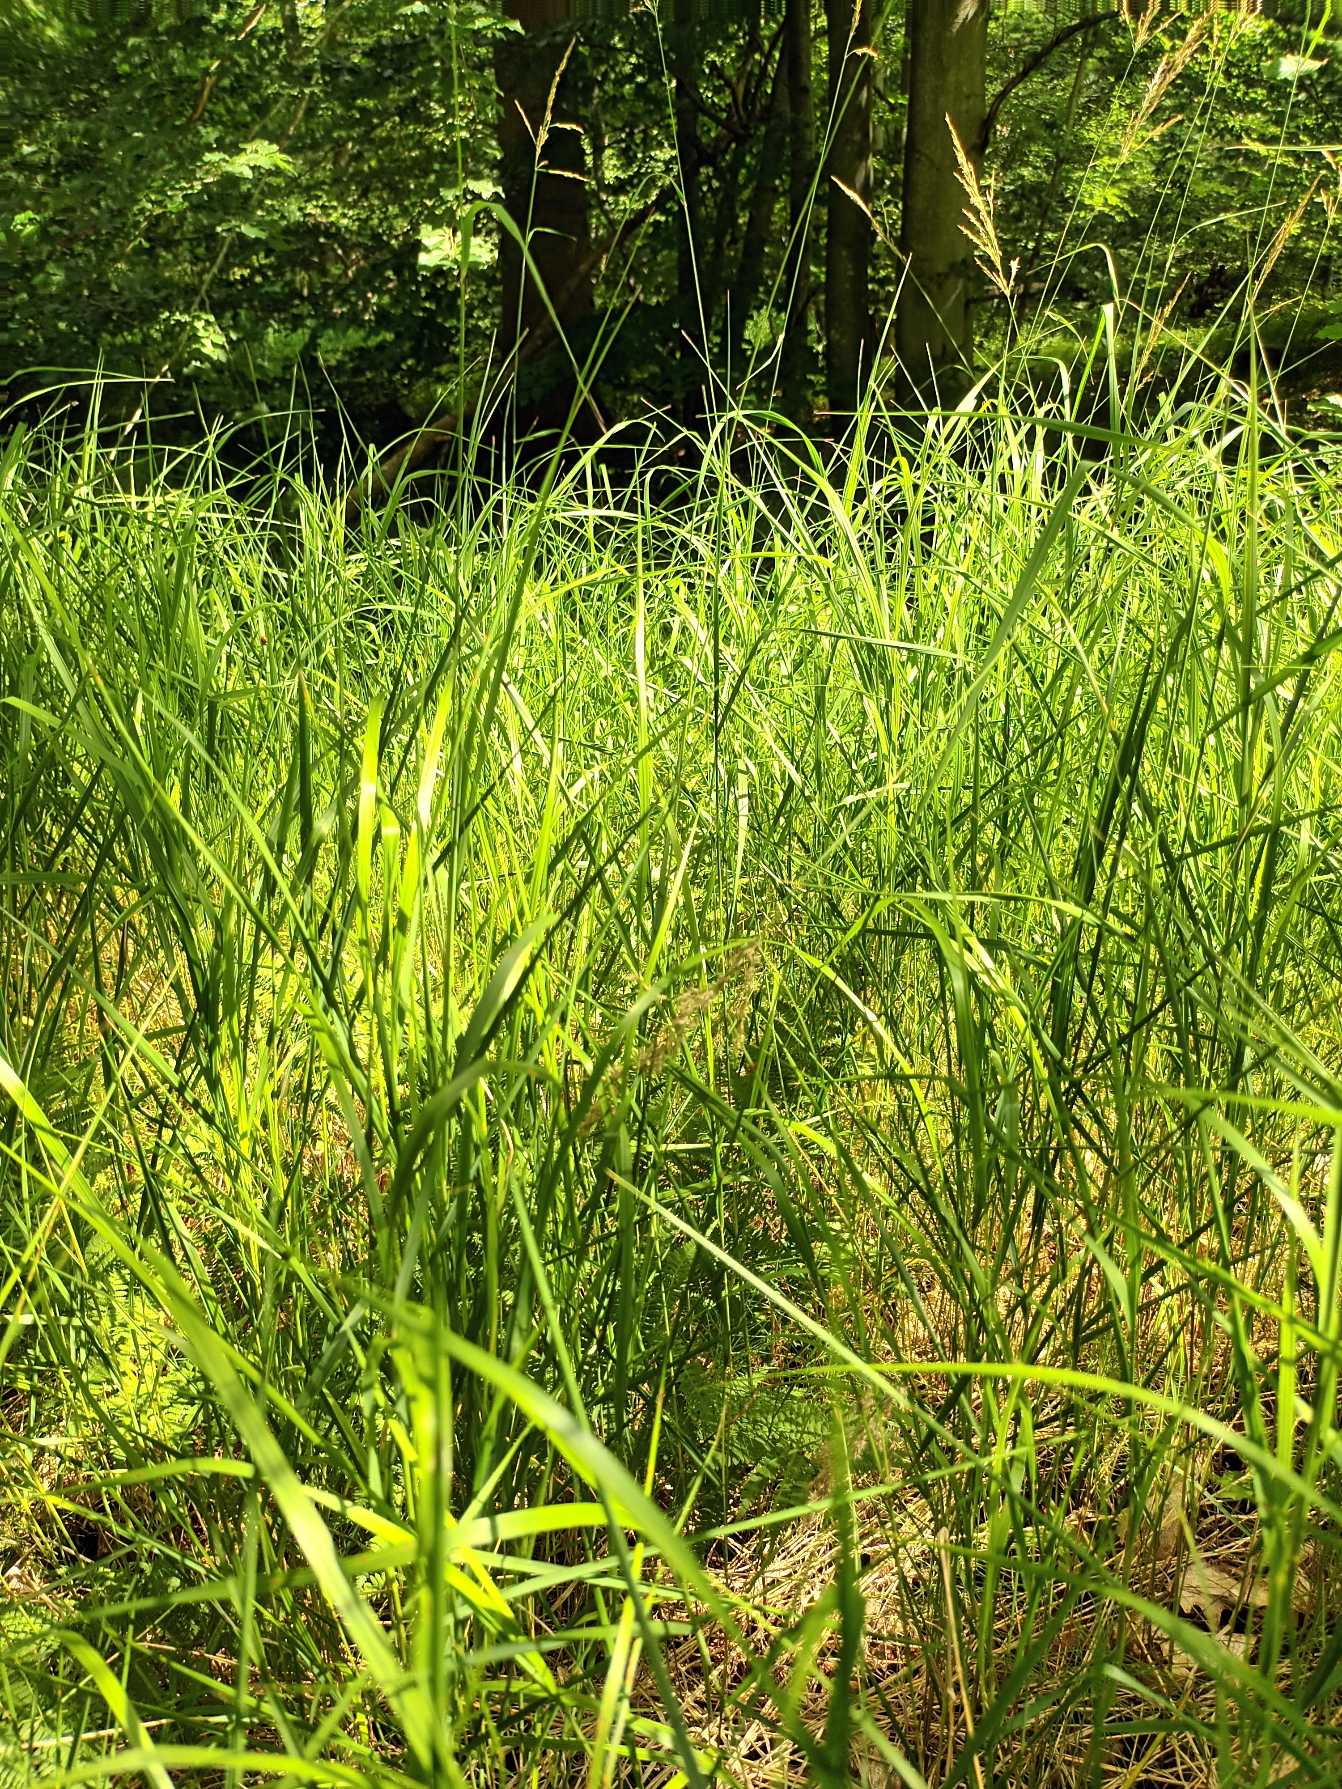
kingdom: Plantae
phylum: Tracheophyta
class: Liliopsida
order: Poales
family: Poaceae
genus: Calamagrostis
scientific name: Calamagrostis canescens
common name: Eng-rørhvene
